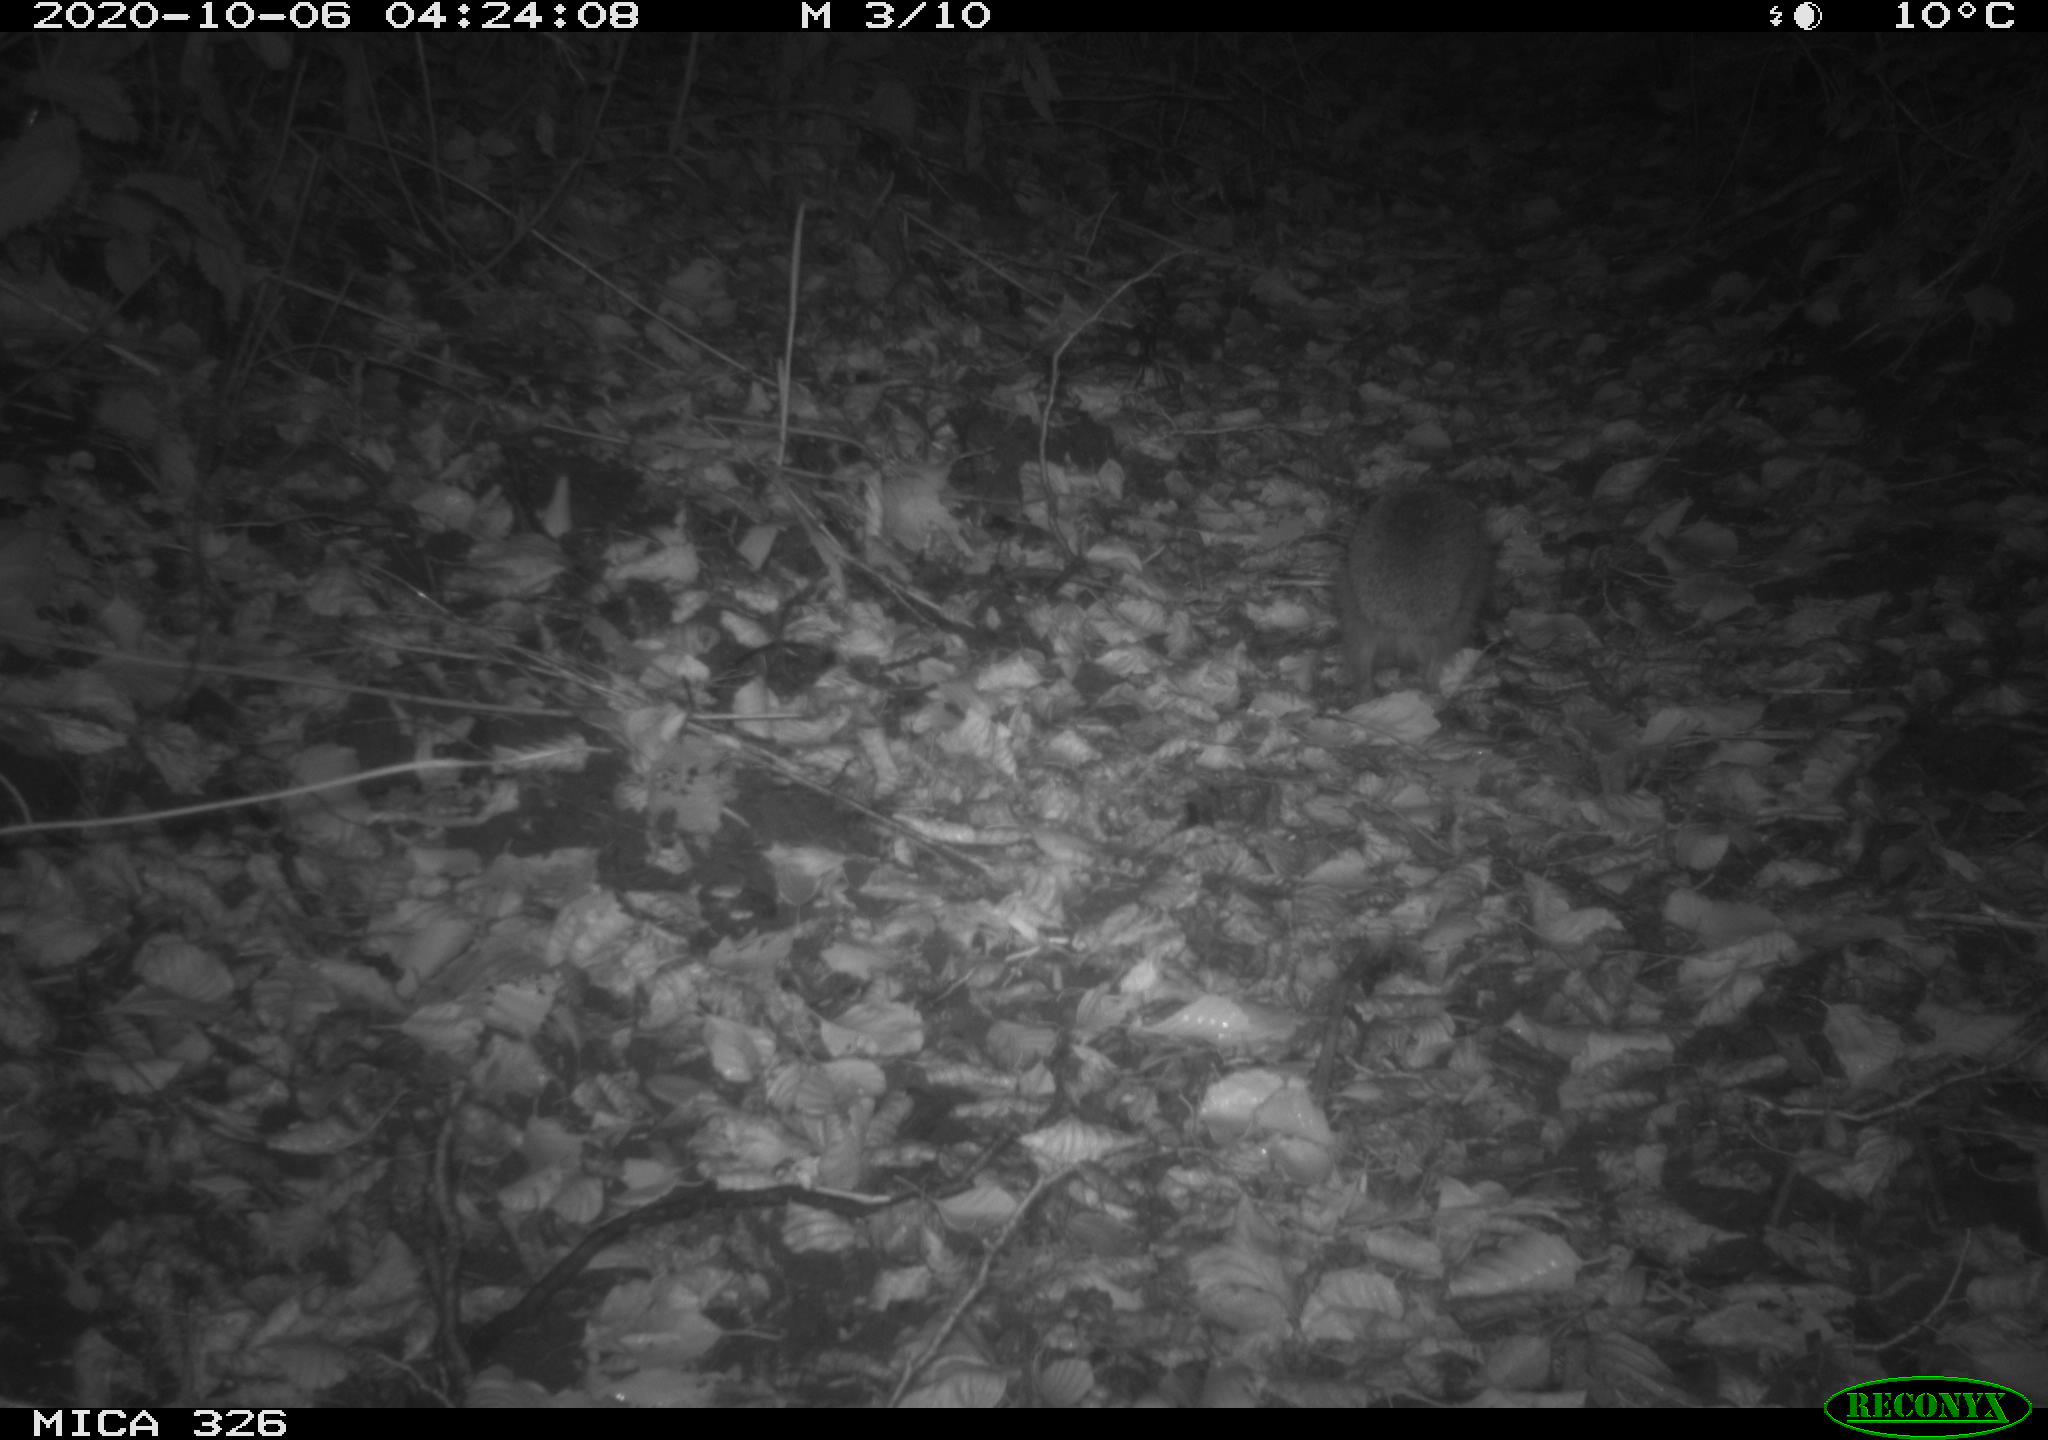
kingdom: Animalia
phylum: Chordata
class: Mammalia
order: Erinaceomorpha
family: Erinaceidae
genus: Erinaceus
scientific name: Erinaceus europaeus
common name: West european hedgehog
